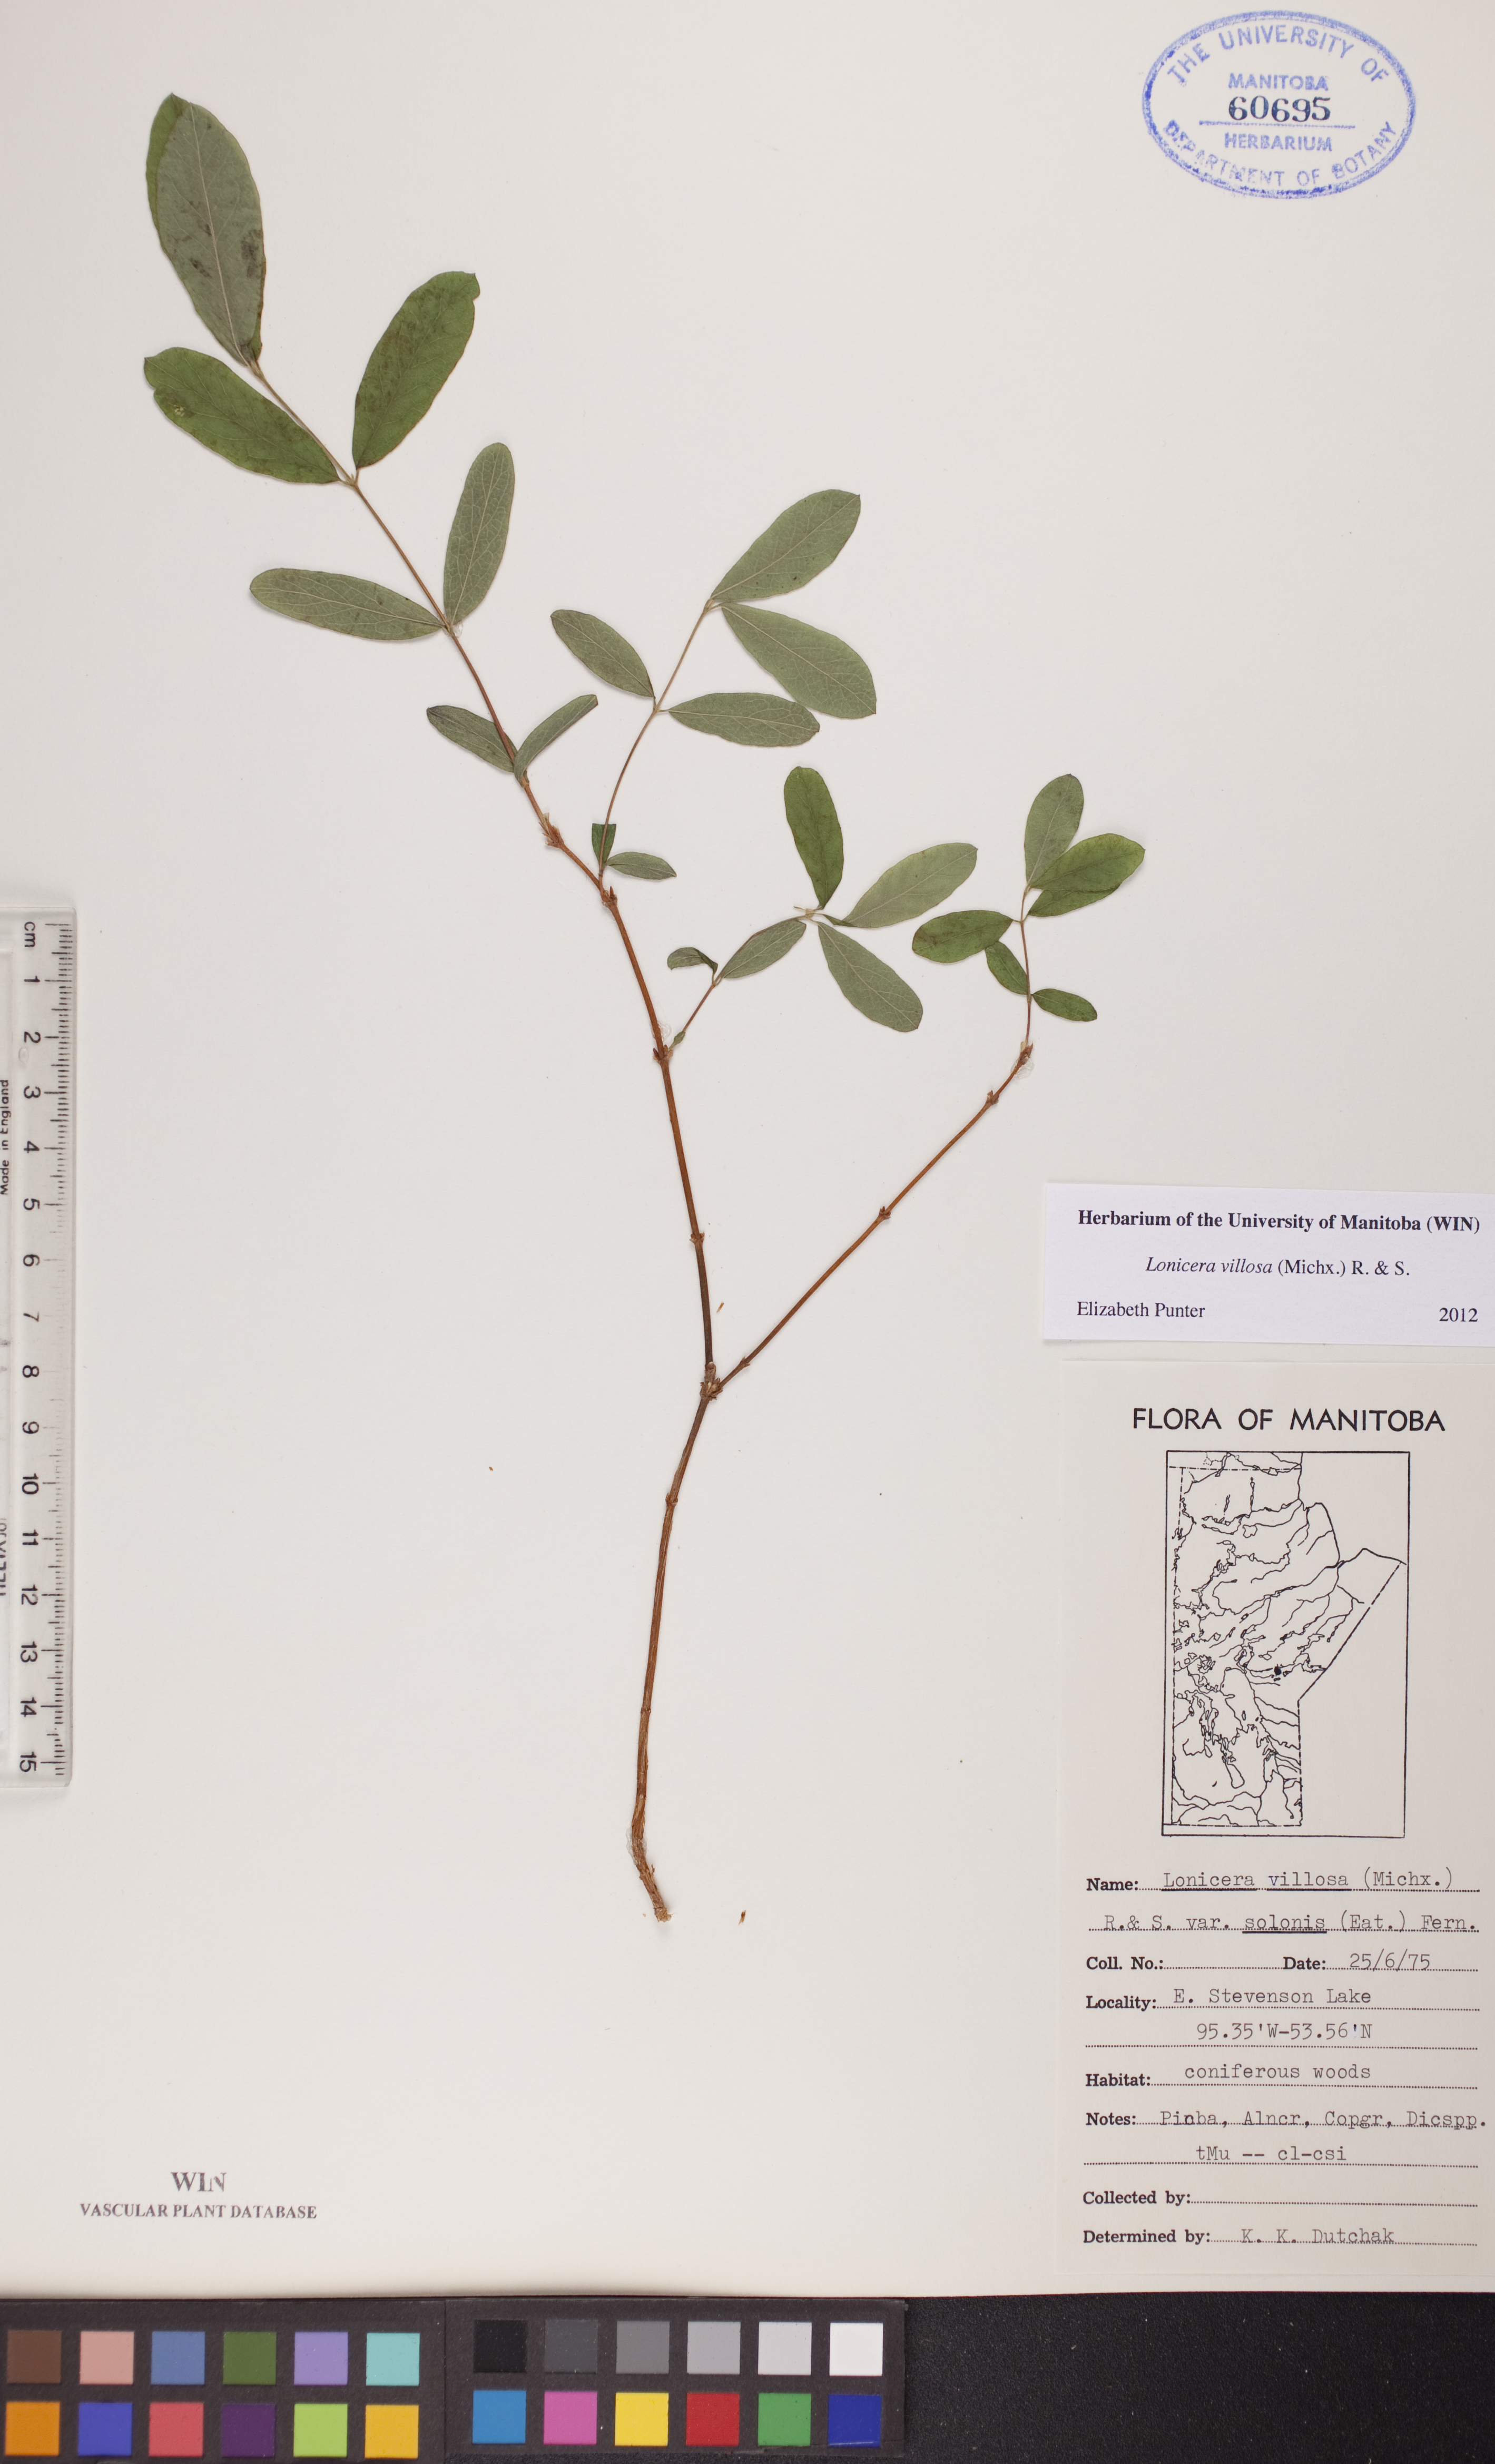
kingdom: Plantae
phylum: Tracheophyta
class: Magnoliopsida
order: Dipsacales
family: Caprifoliaceae
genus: Lonicera
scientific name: Lonicera villosa
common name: Mountain fly-honeysuckle
